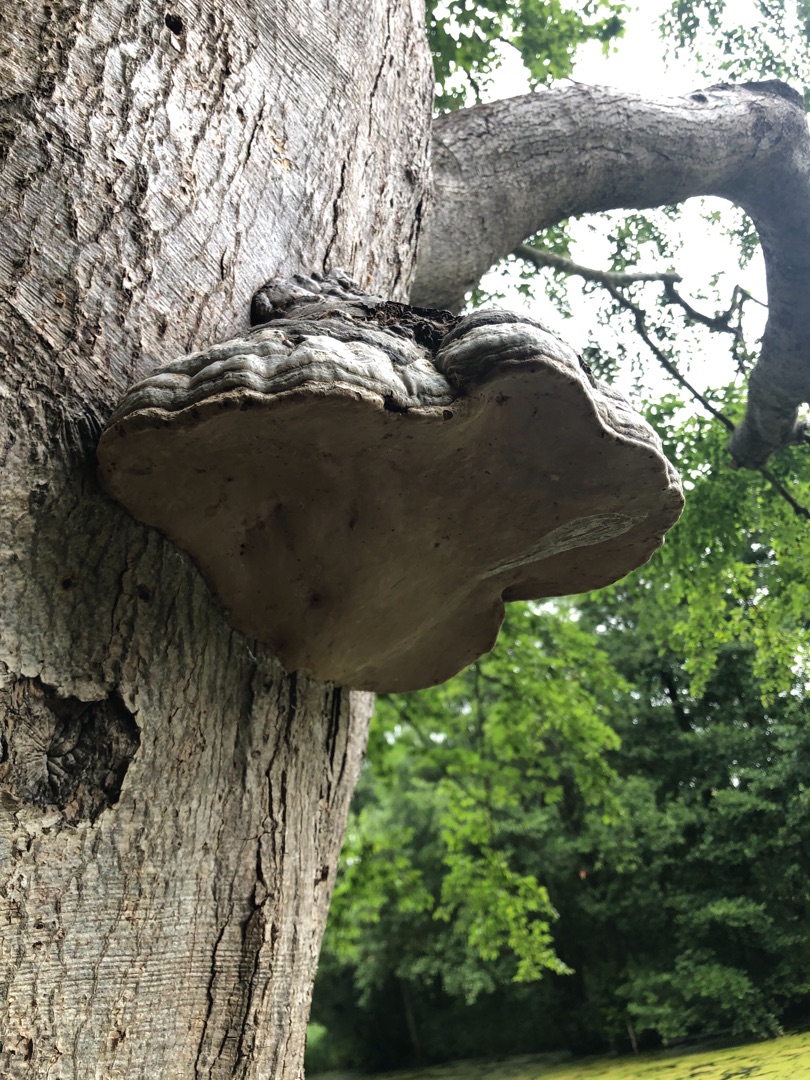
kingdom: Fungi
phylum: Basidiomycota
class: Agaricomycetes
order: Polyporales
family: Polyporaceae
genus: Fomes
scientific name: Fomes fomentarius
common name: Tøndersvamp
